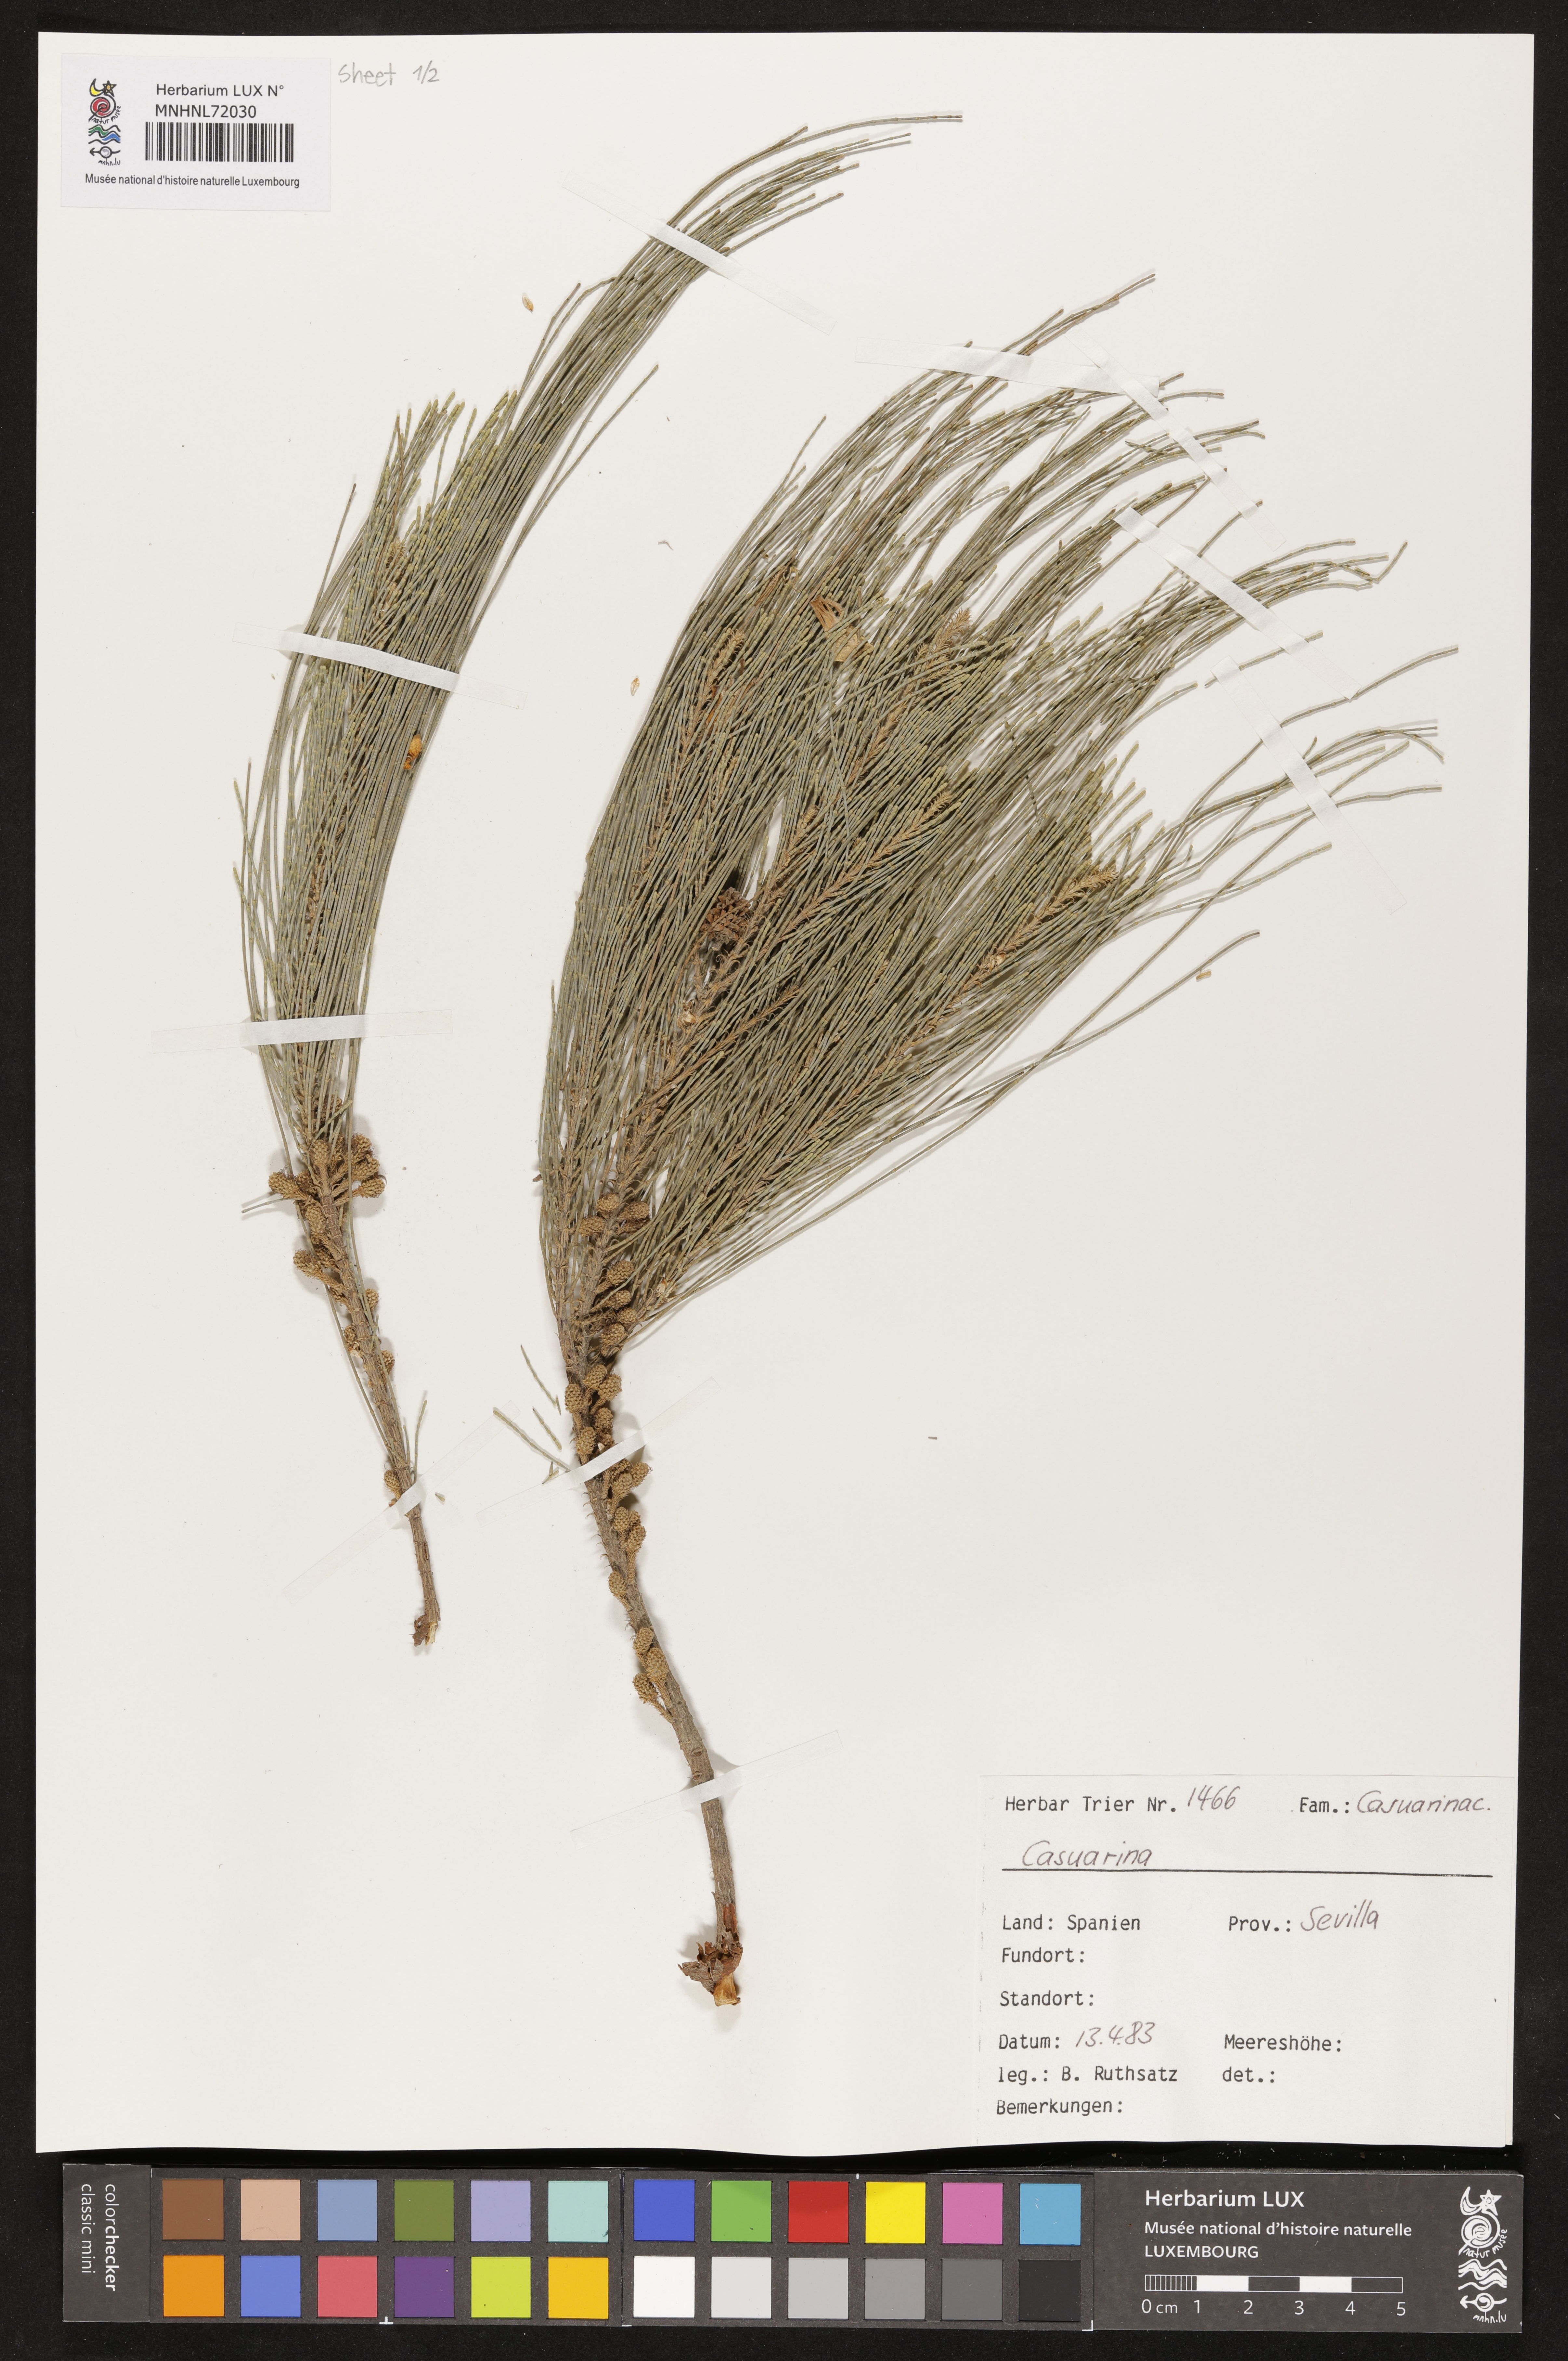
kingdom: Plantae
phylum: Tracheophyta
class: Magnoliopsida
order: Fagales
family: Casuarinaceae
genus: Casuarina
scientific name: Casuarina
